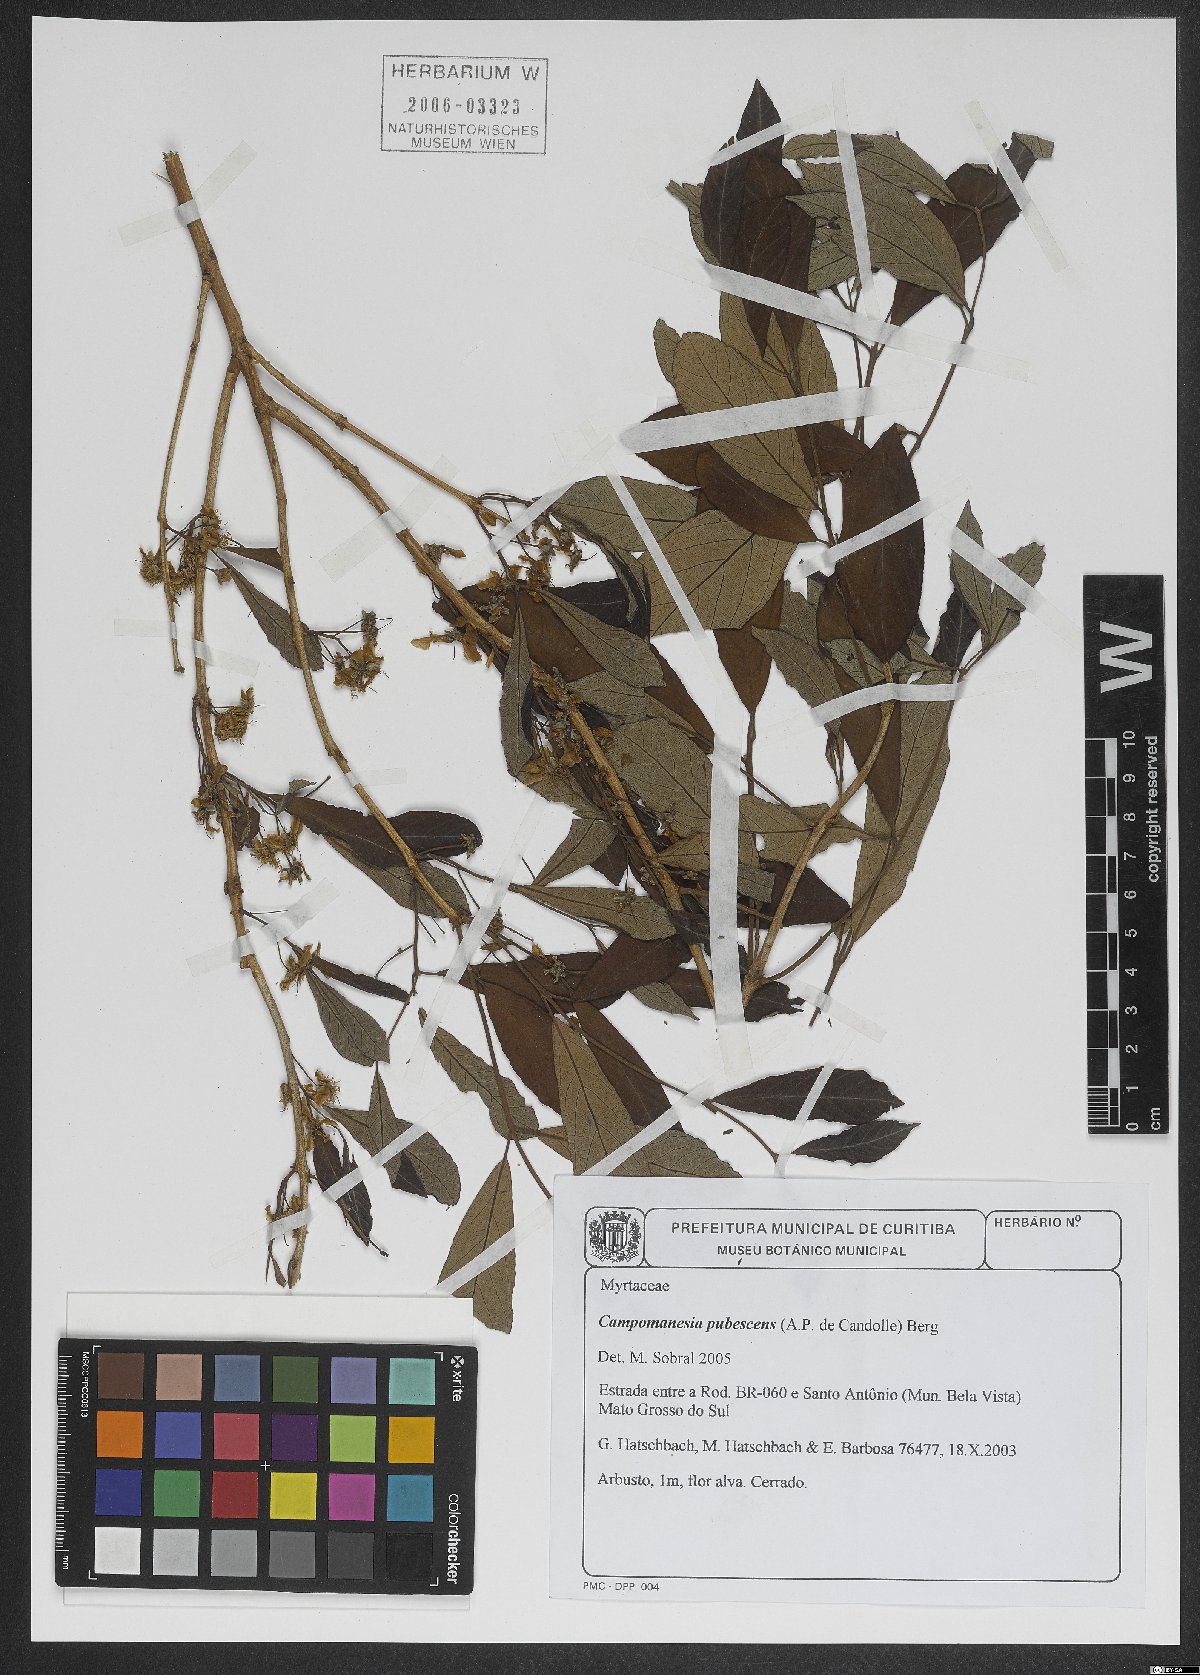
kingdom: Plantae
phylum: Tracheophyta
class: Magnoliopsida
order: Myrtales
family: Myrtaceae
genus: Campomanesia
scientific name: Campomanesia pubescens
